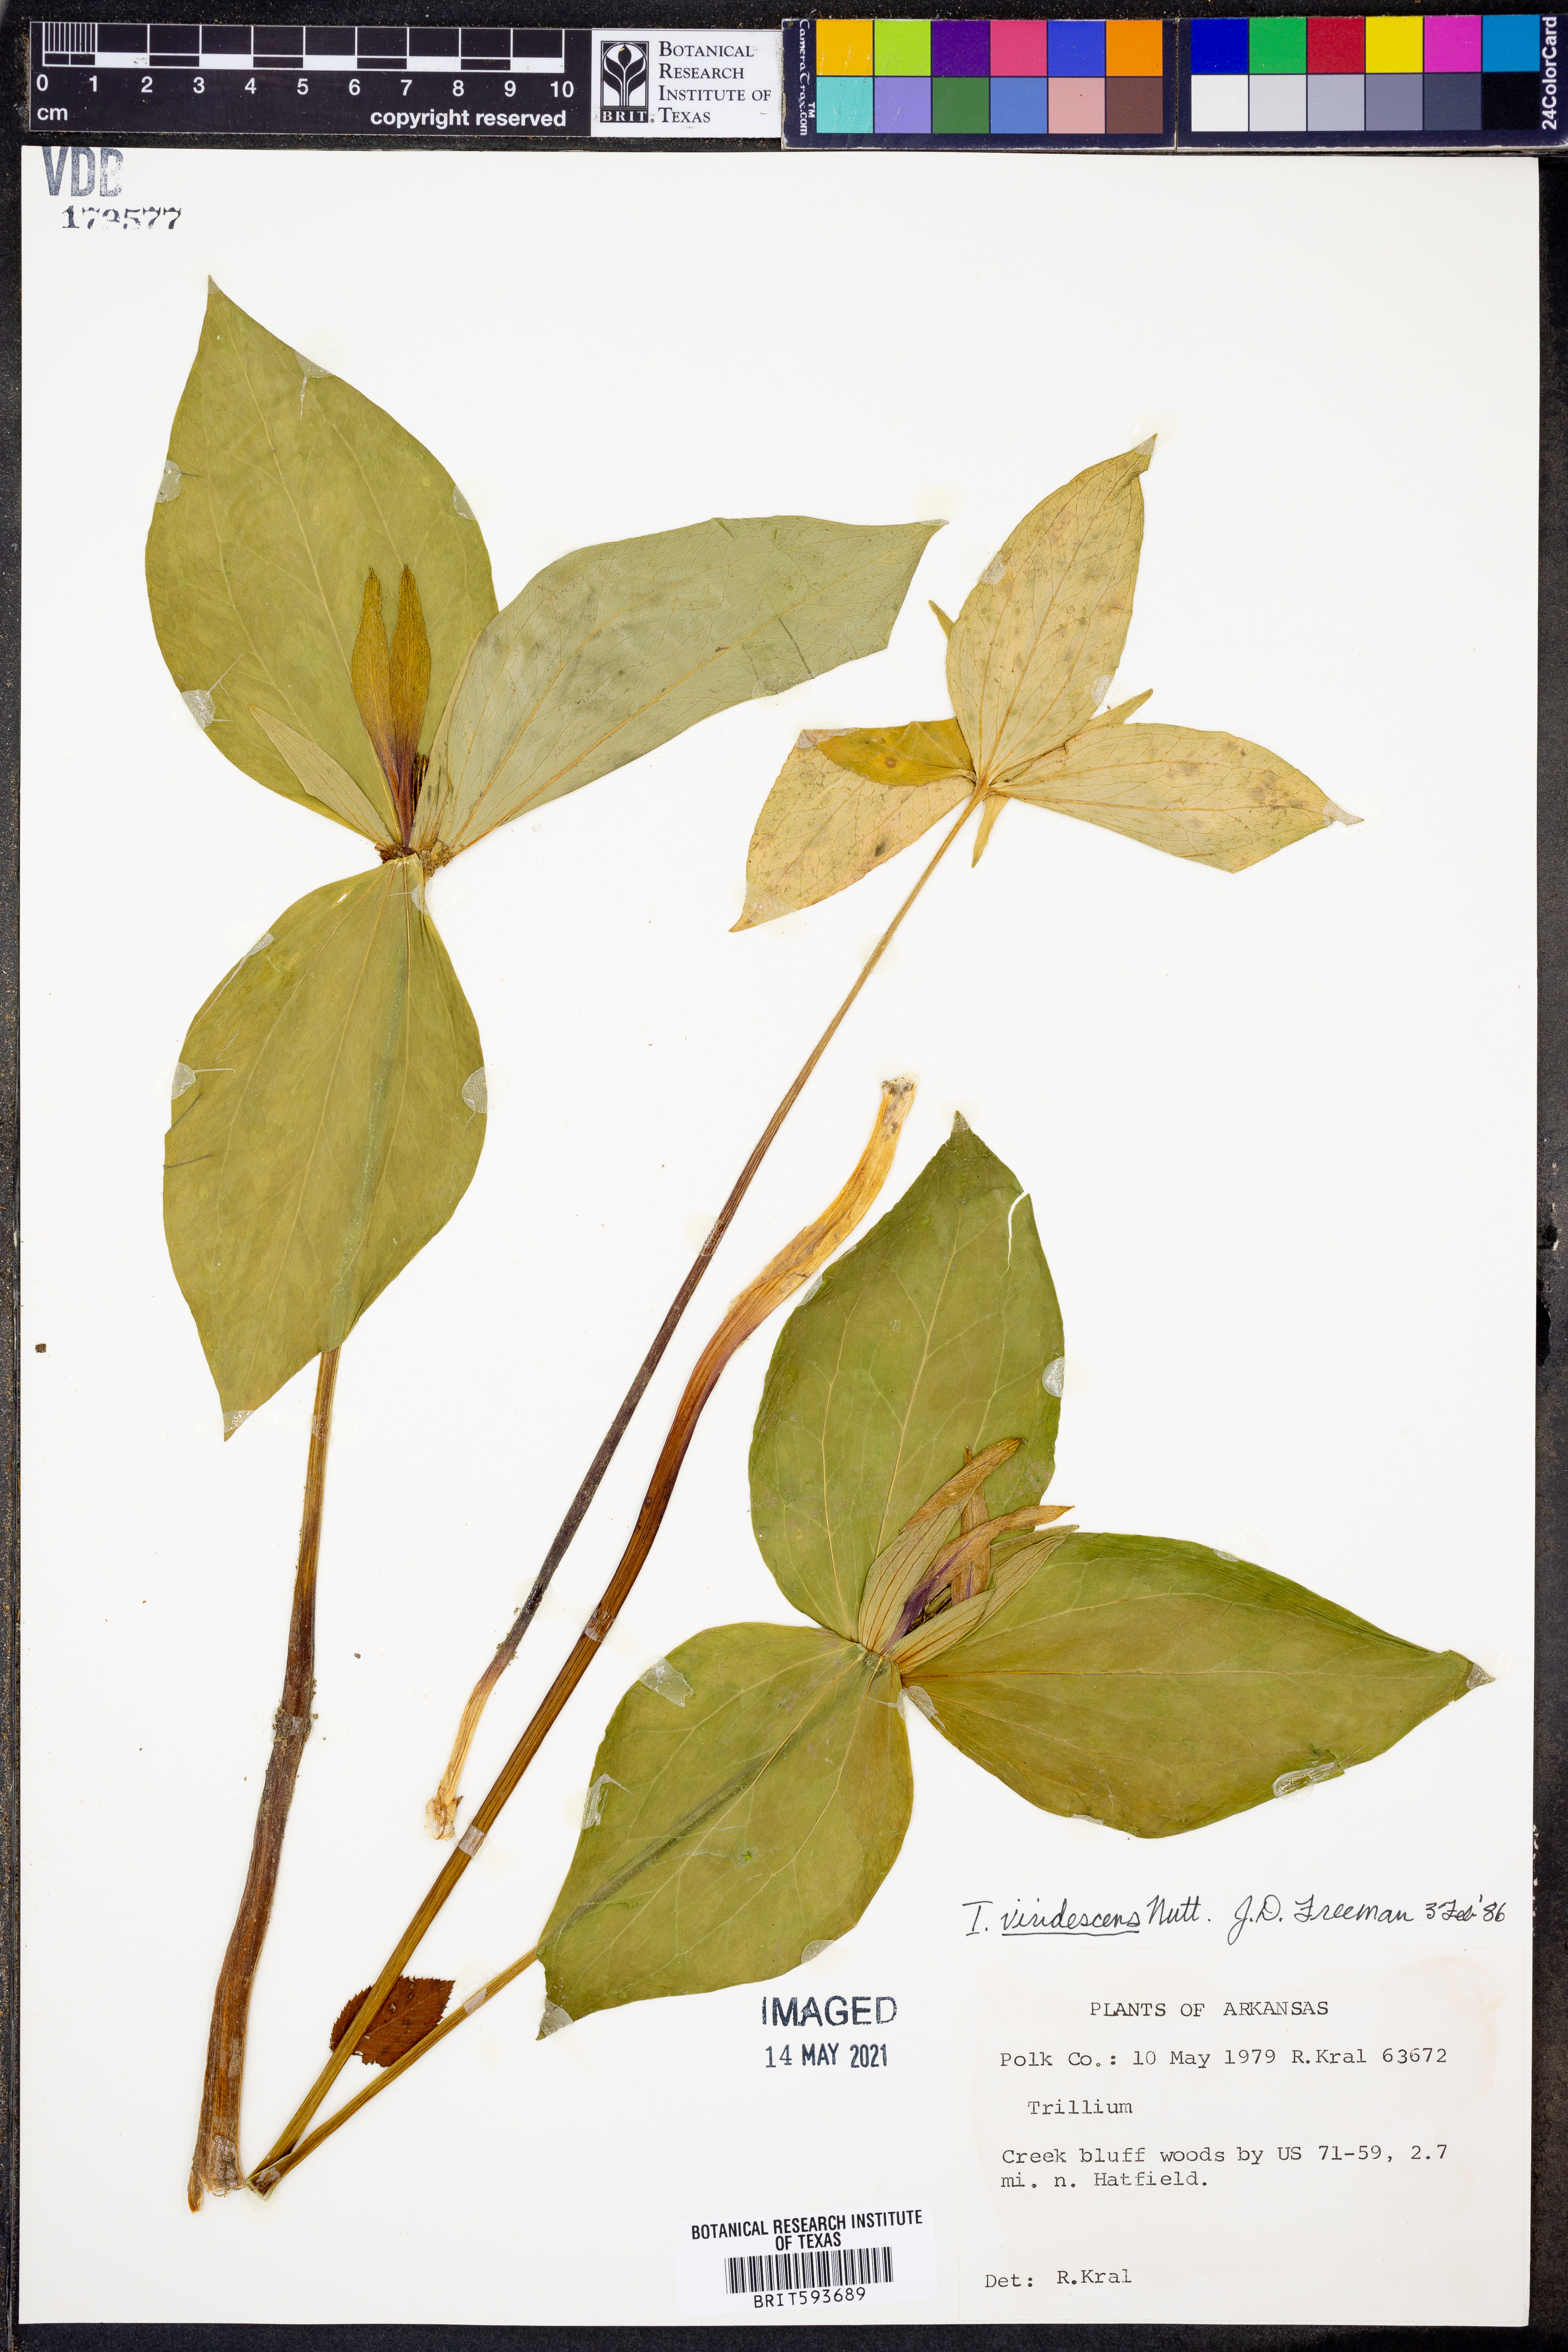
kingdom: Plantae
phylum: Tracheophyta
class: Liliopsida
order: Liliales
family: Melanthiaceae
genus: Trillium
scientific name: Trillium viridescens
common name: Ozark green trillium
